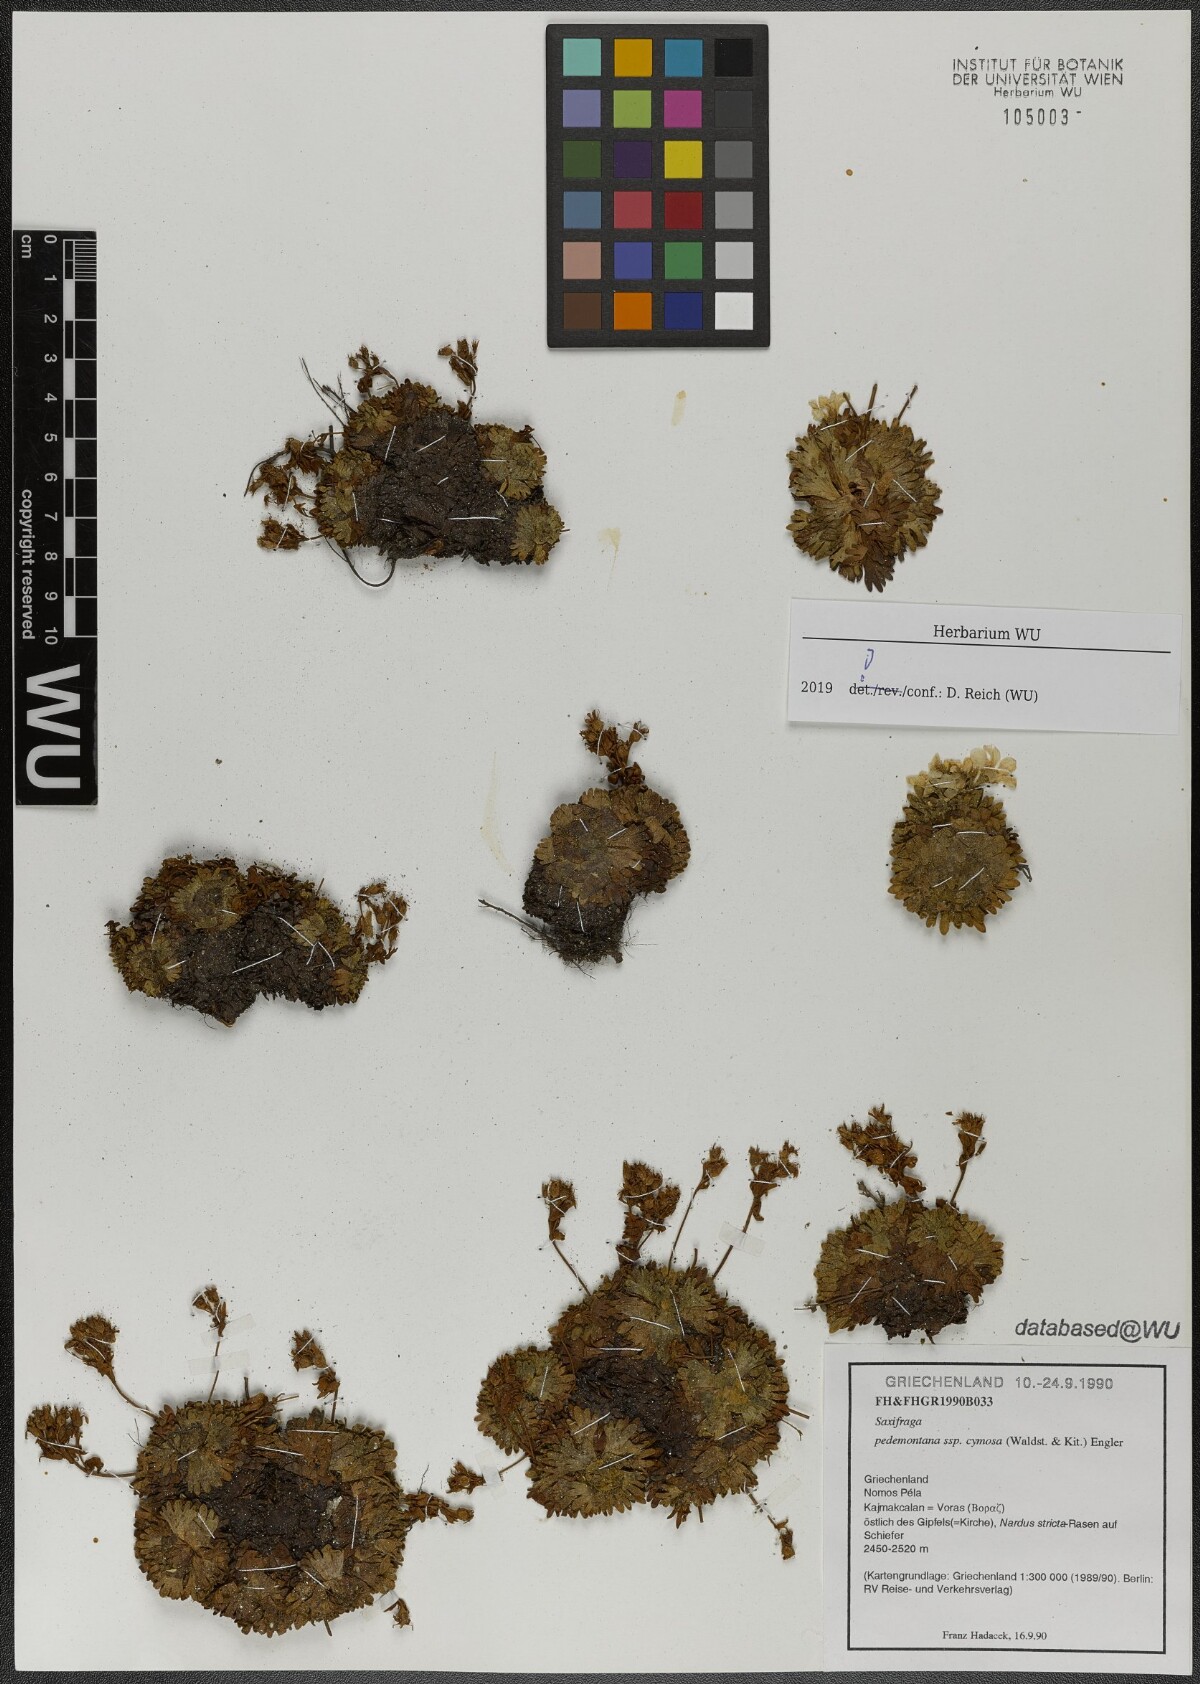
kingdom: Plantae
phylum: Tracheophyta
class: Magnoliopsida
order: Saxifragales
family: Saxifragaceae
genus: Saxifraga
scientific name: Saxifraga pedemontana
